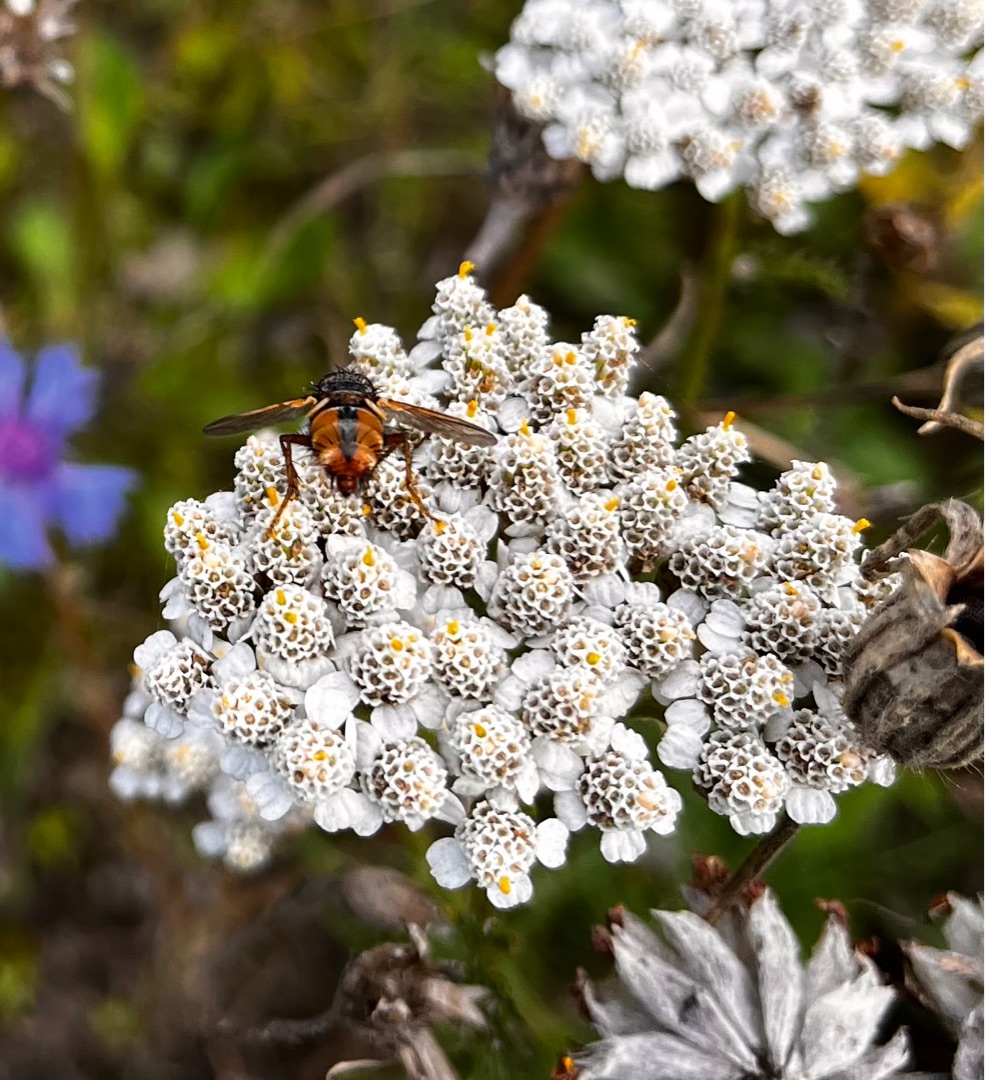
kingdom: Animalia
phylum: Arthropoda
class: Insecta
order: Diptera
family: Tachinidae
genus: Tachina
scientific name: Tachina fera
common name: Mellemfluen oskar
